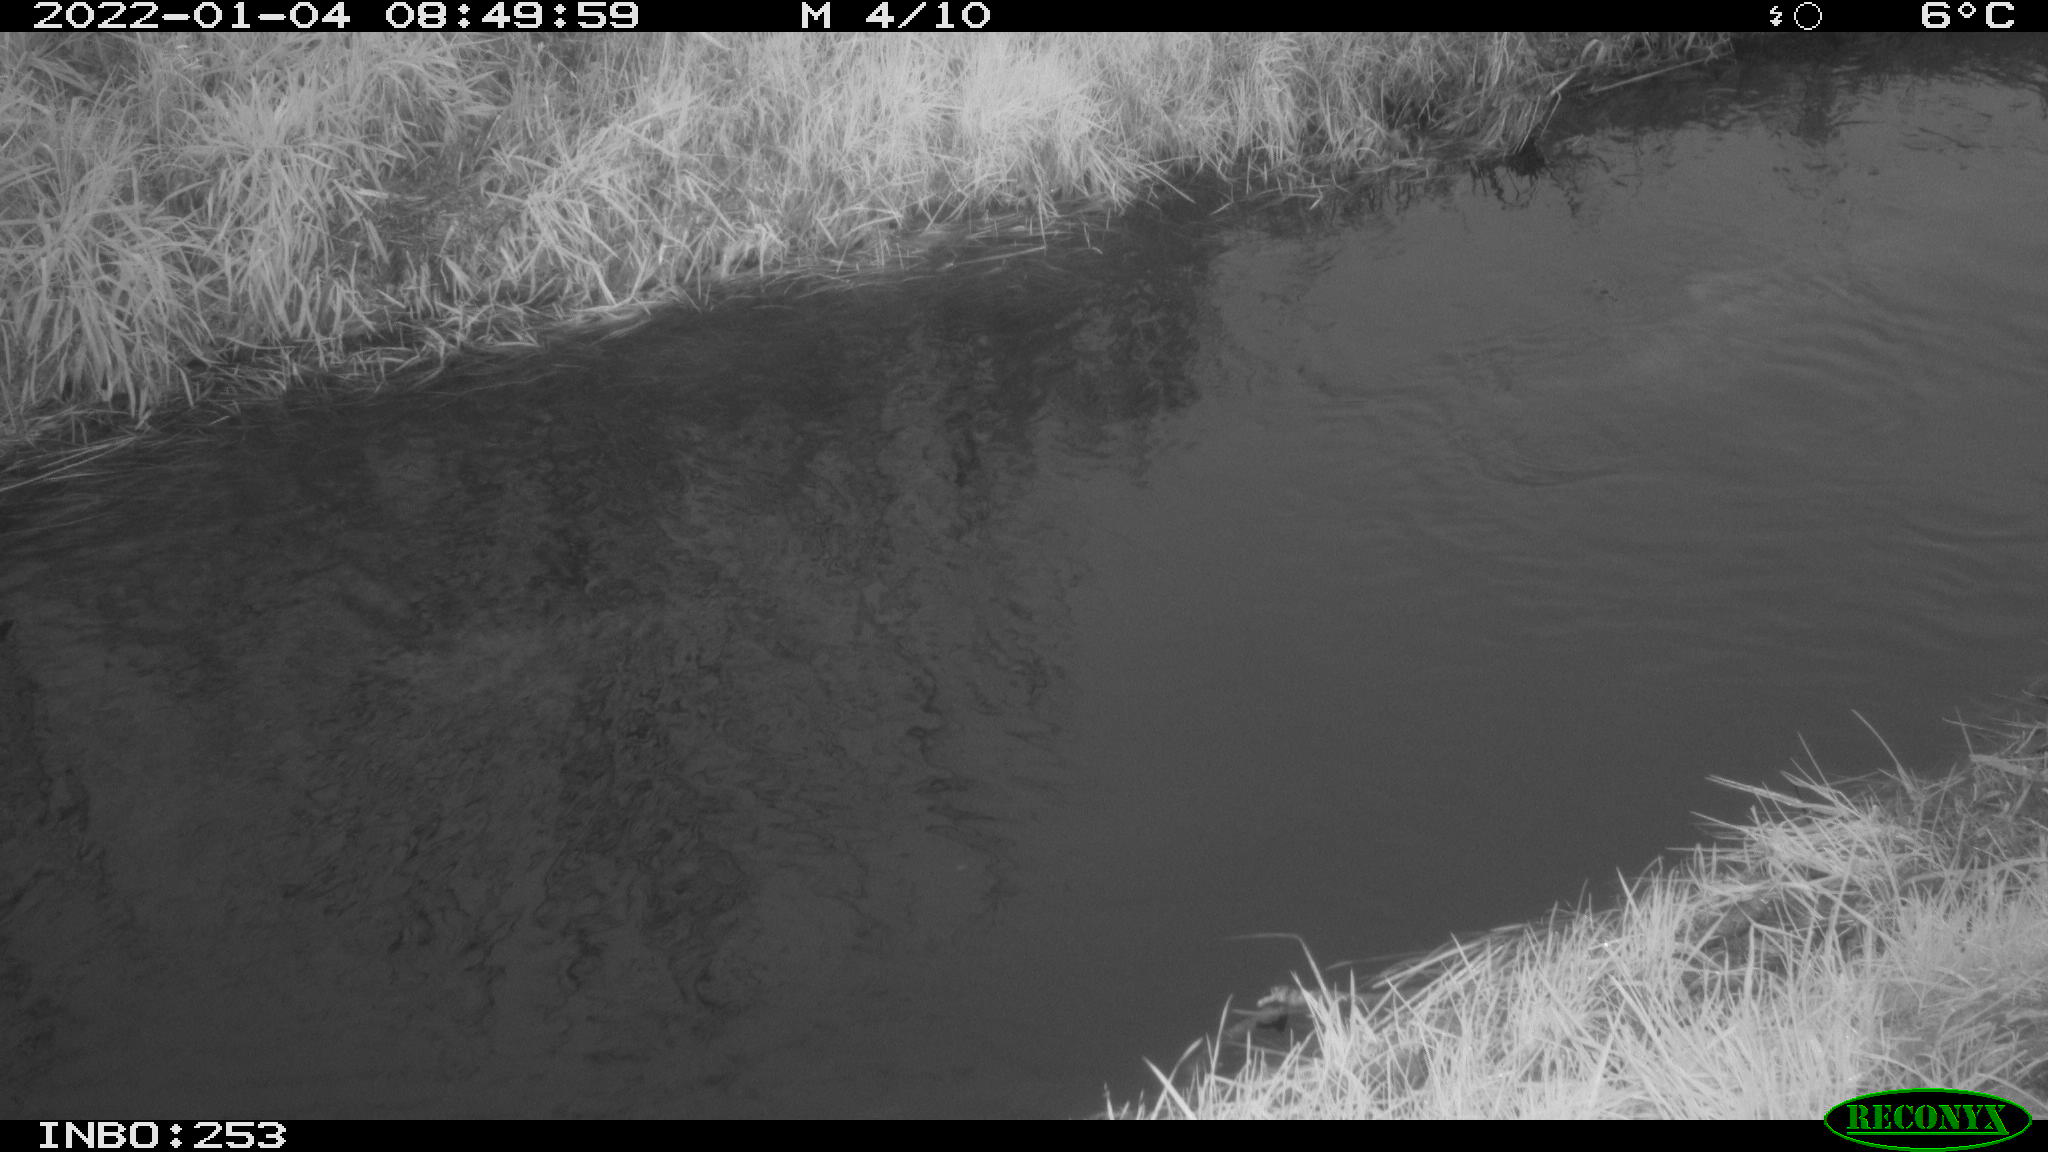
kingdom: Animalia
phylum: Chordata
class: Aves
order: Anseriformes
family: Anatidae
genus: Anas
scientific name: Anas platyrhynchos
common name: Mallard
